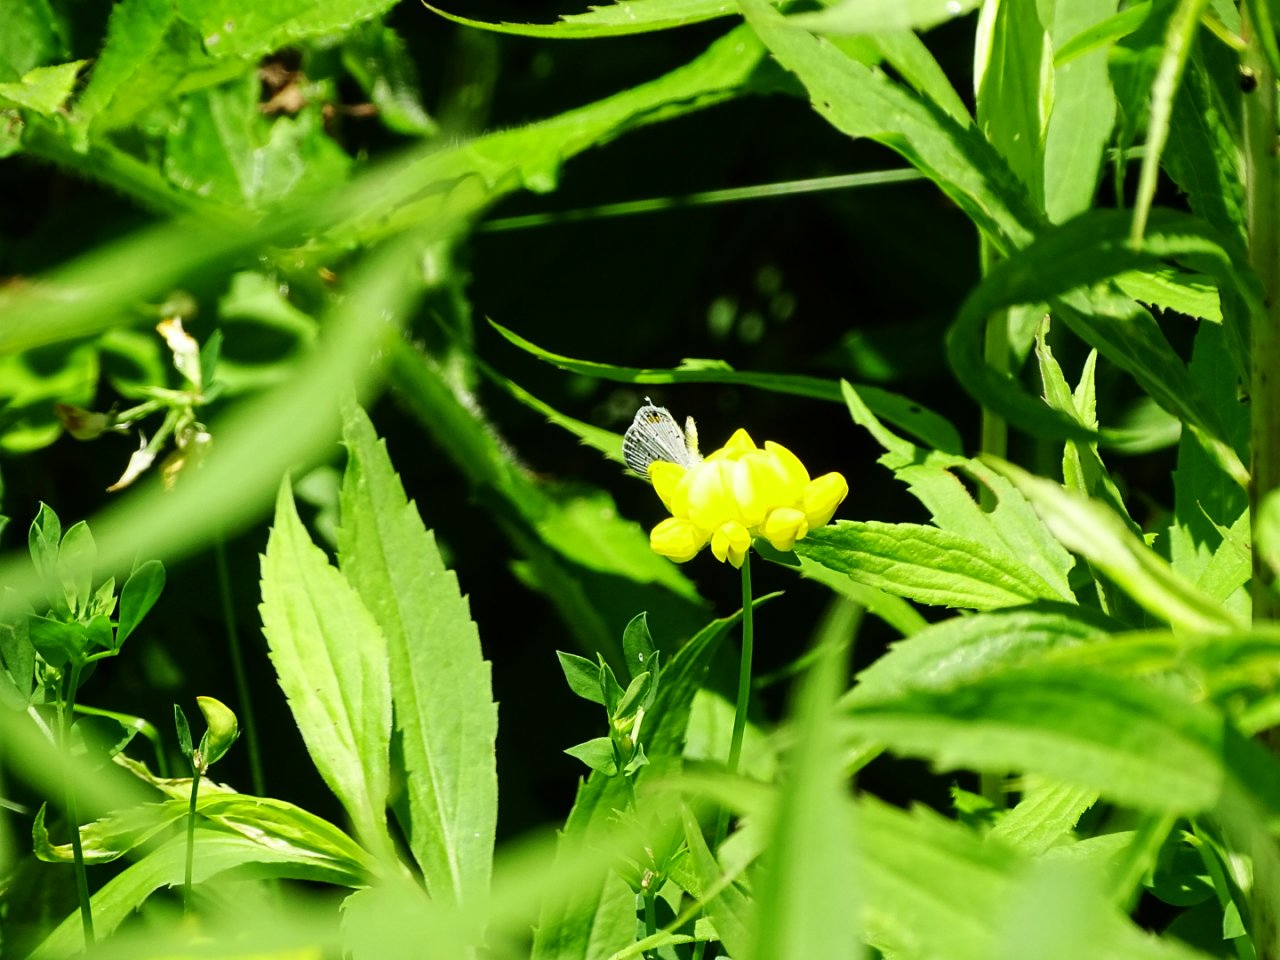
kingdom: Animalia
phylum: Arthropoda
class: Insecta
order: Lepidoptera
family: Lycaenidae
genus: Elkalyce
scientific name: Elkalyce comyntas
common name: Eastern Tailed-Blue
